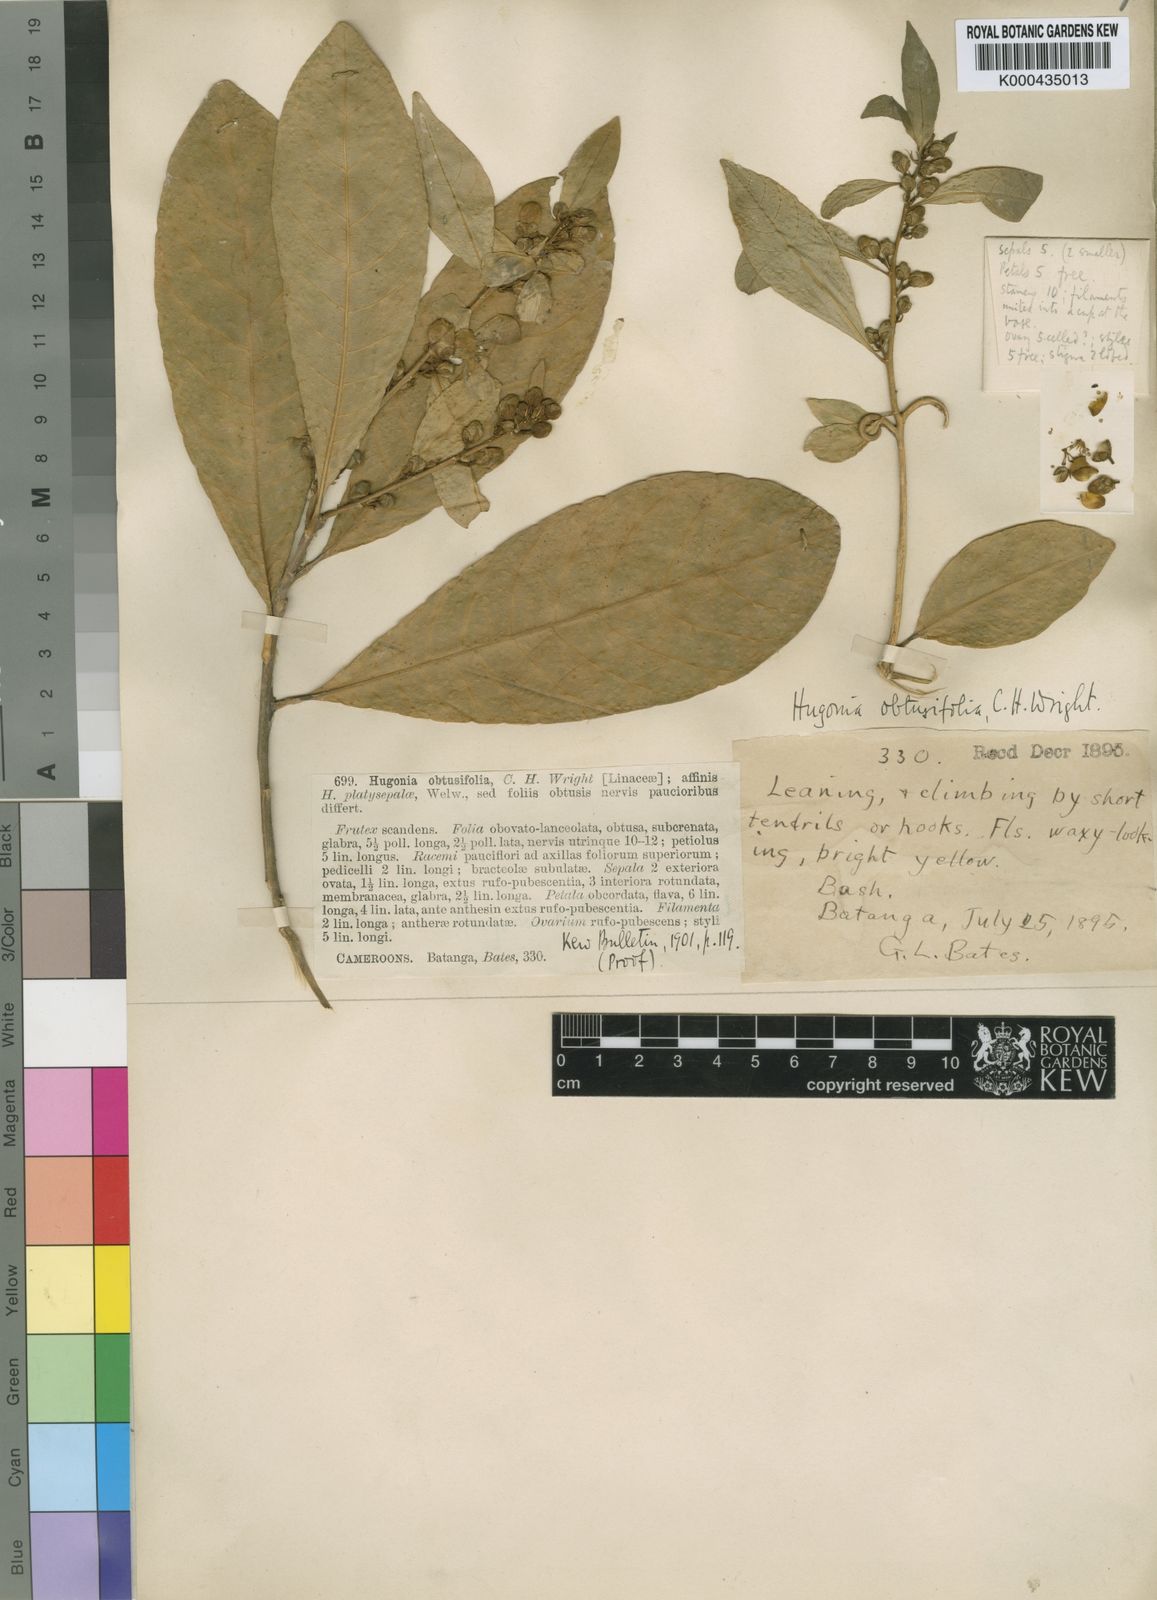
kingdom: Plantae
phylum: Tracheophyta
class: Magnoliopsida
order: Malpighiales
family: Linaceae
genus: Hugonia
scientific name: Hugonia obtusifolia
